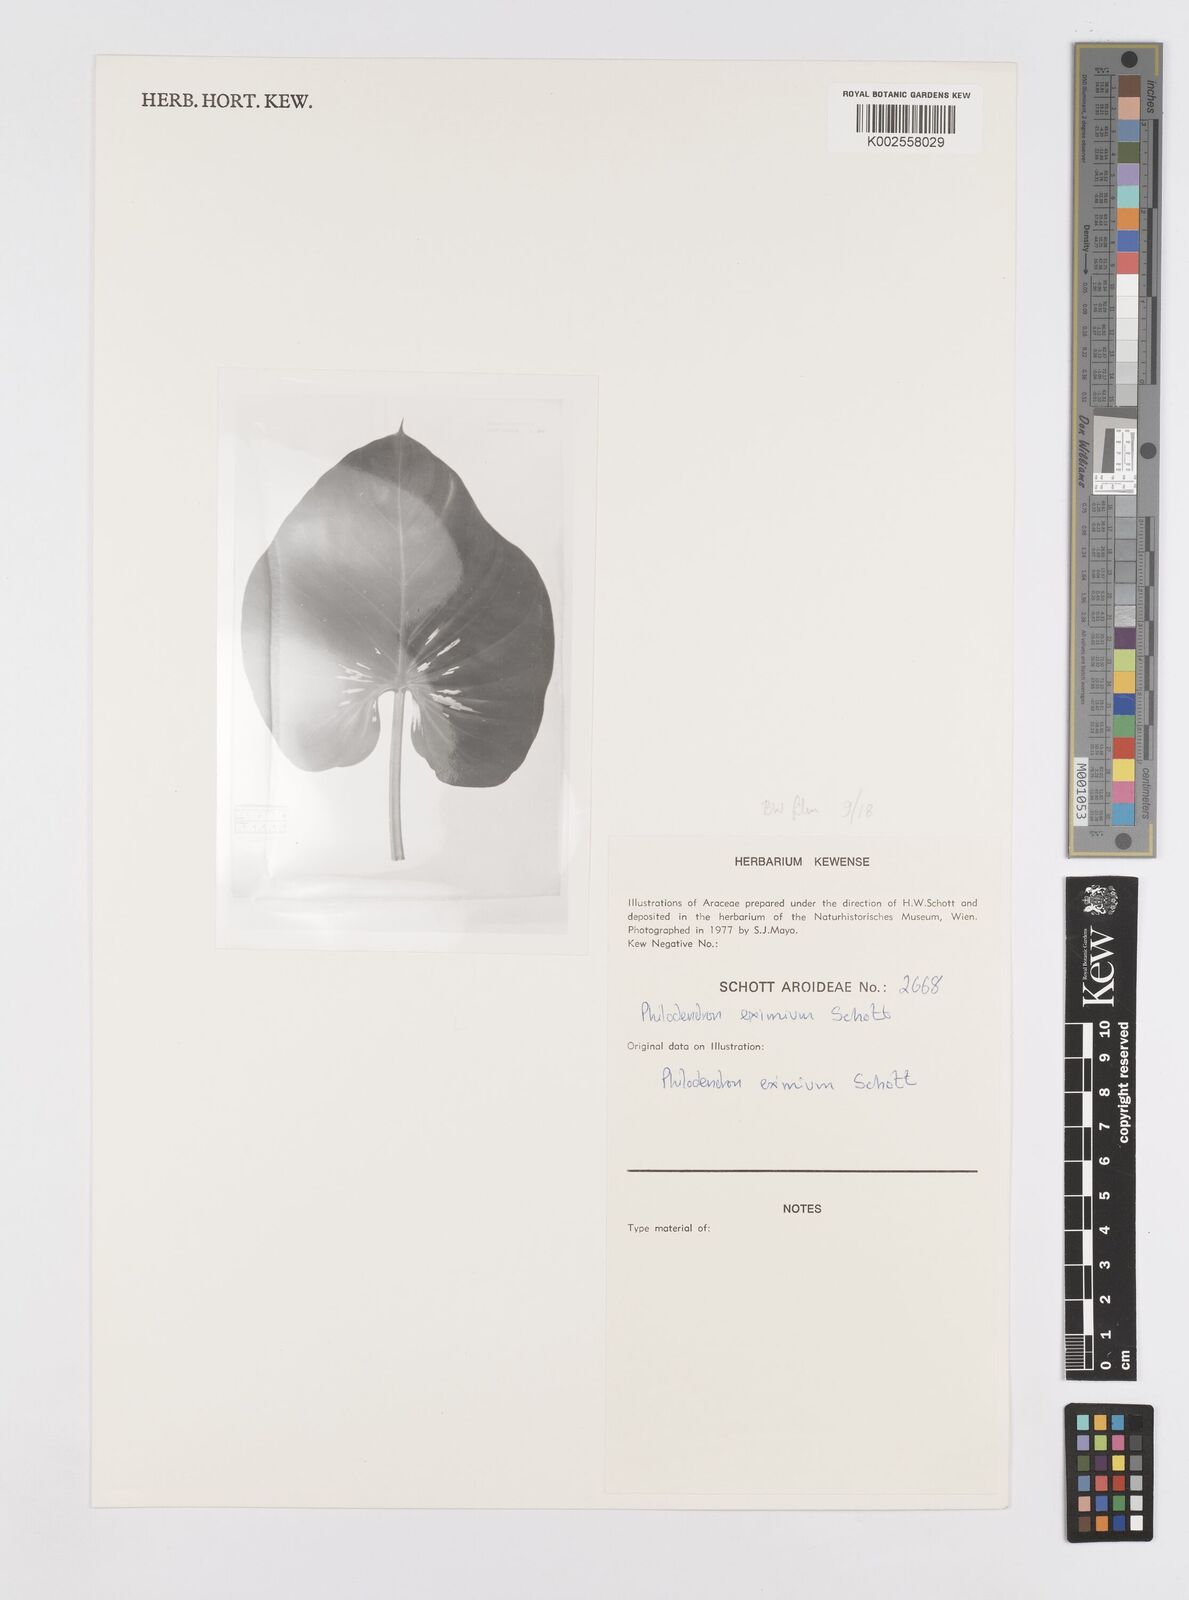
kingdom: Plantae
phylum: Tracheophyta
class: Liliopsida
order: Alismatales
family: Araceae
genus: Philodendron
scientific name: Philodendron eximium
